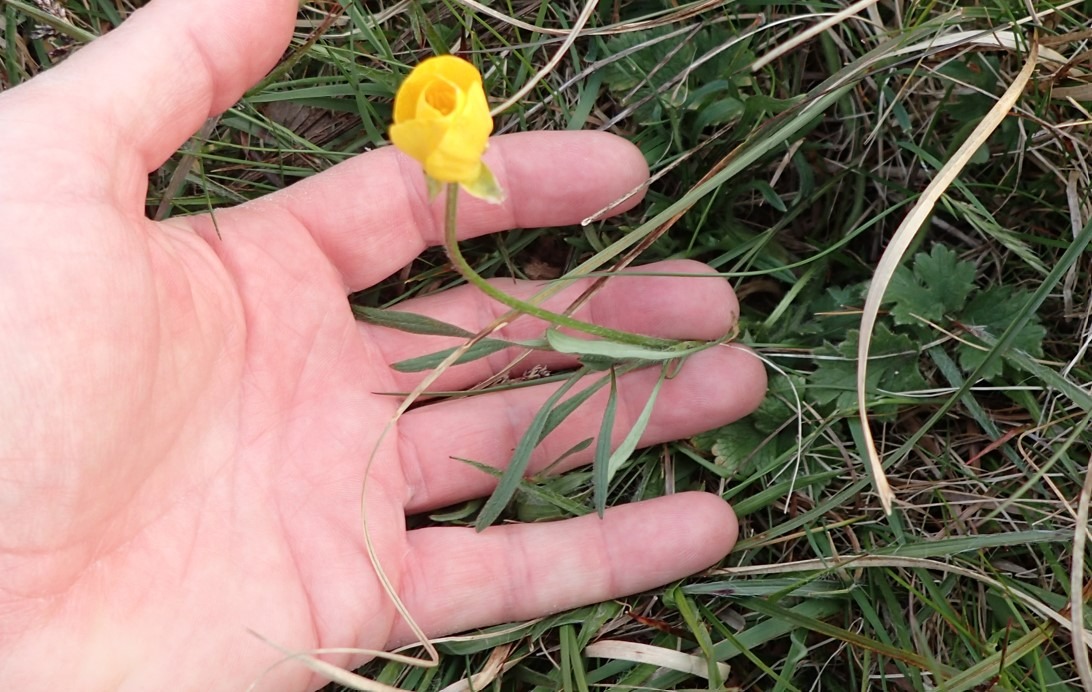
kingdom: Plantae
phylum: Tracheophyta
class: Magnoliopsida
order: Ranunculales
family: Ranunculaceae
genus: Ranunculus
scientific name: Ranunculus bulbosus
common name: Knold-ranunkel
